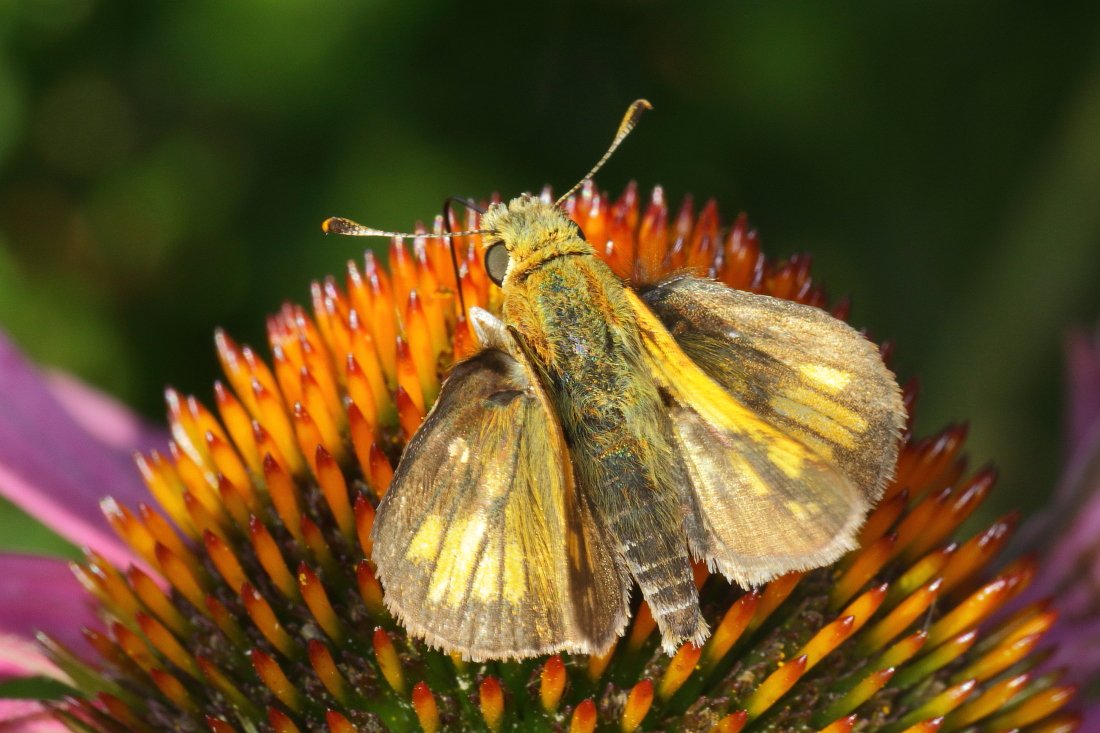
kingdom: Animalia
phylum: Arthropoda
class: Insecta
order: Lepidoptera
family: Hesperiidae
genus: Polites
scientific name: Polites coras
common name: Peck's Skipper
